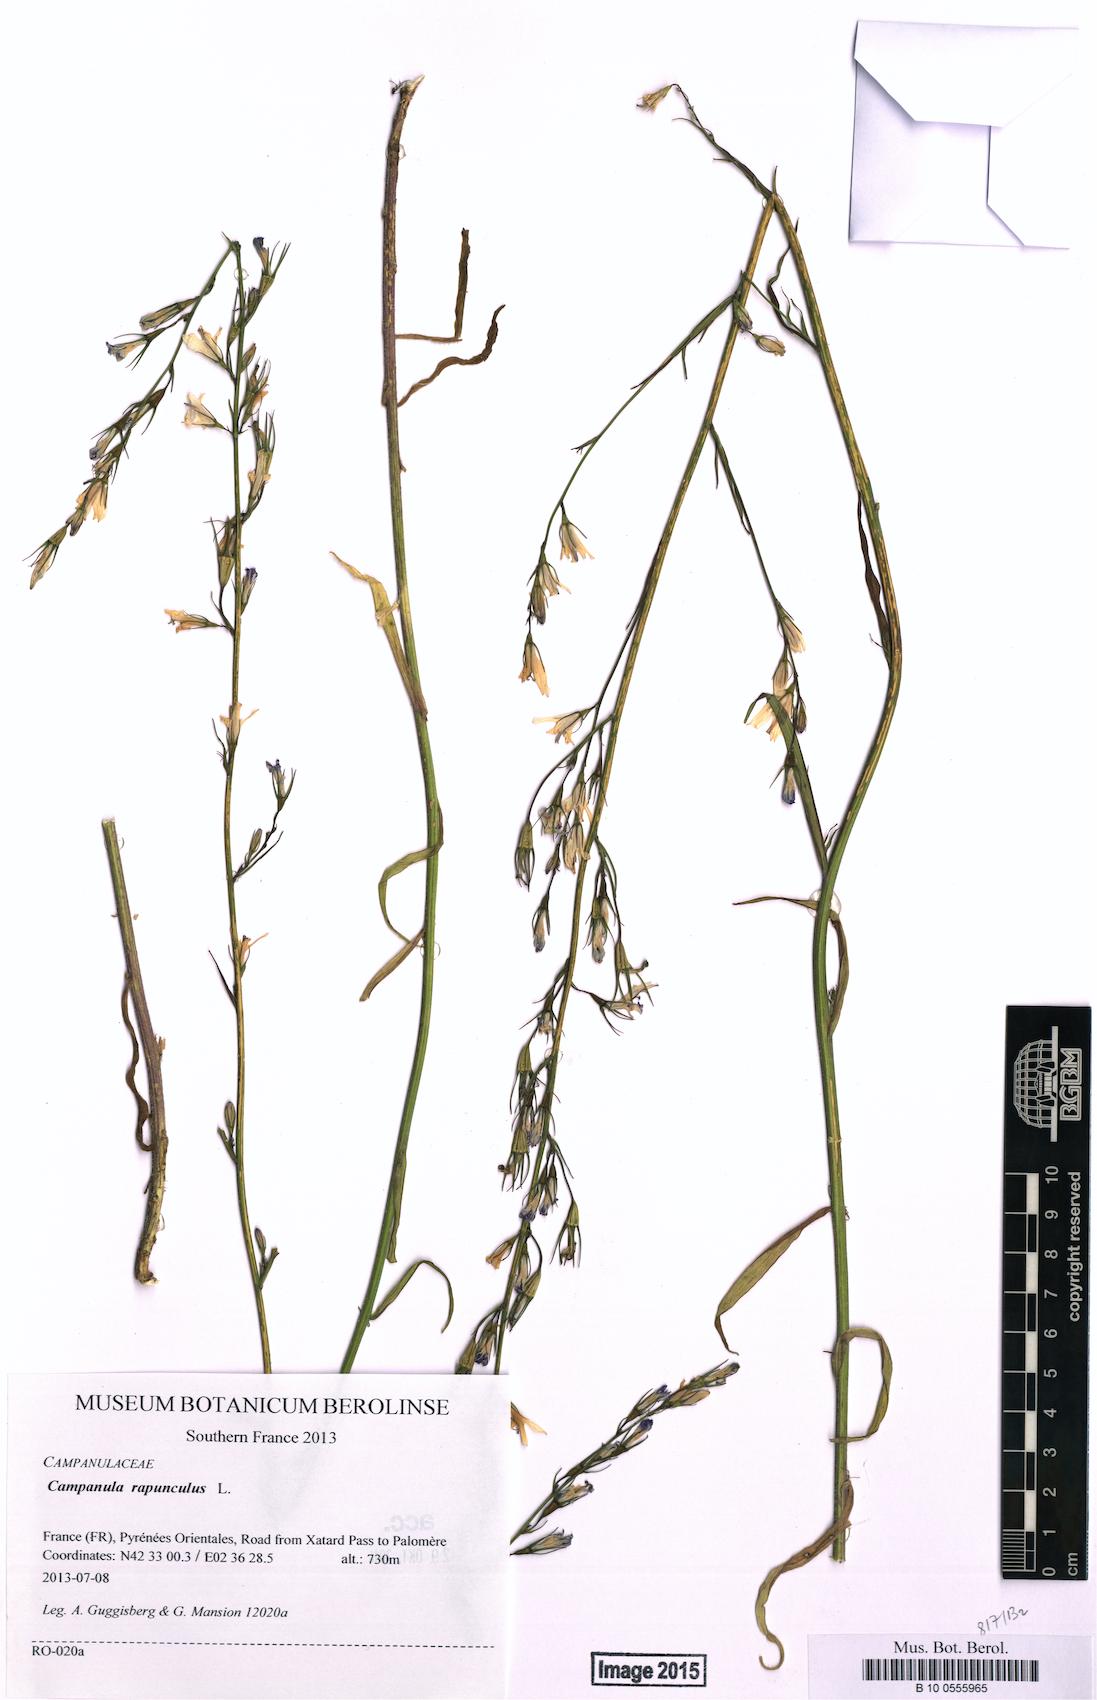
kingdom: Plantae
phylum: Tracheophyta
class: Magnoliopsida
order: Asterales
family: Campanulaceae
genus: Campanula
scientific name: Campanula rapunculus
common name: Rampion bellflower
